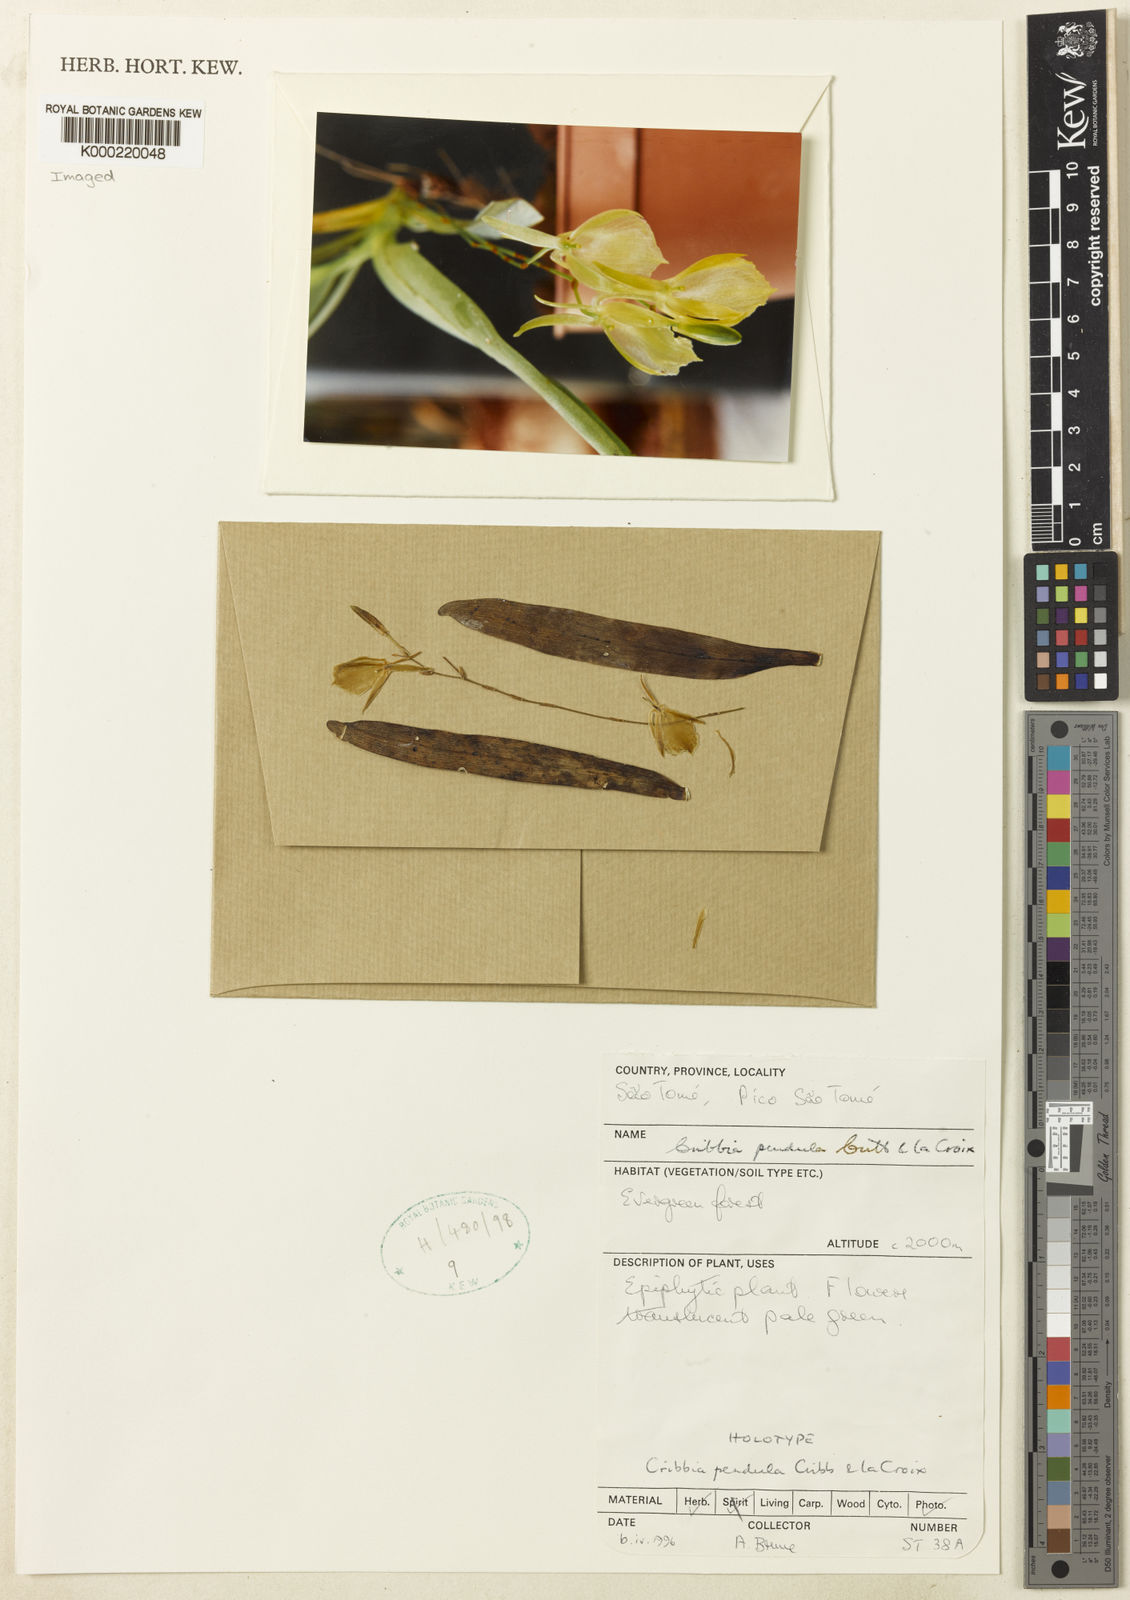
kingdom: Plantae
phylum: Tracheophyta
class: Liliopsida
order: Asparagales
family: Orchidaceae
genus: Rhipidoglossum
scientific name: Rhipidoglossum pendulum
